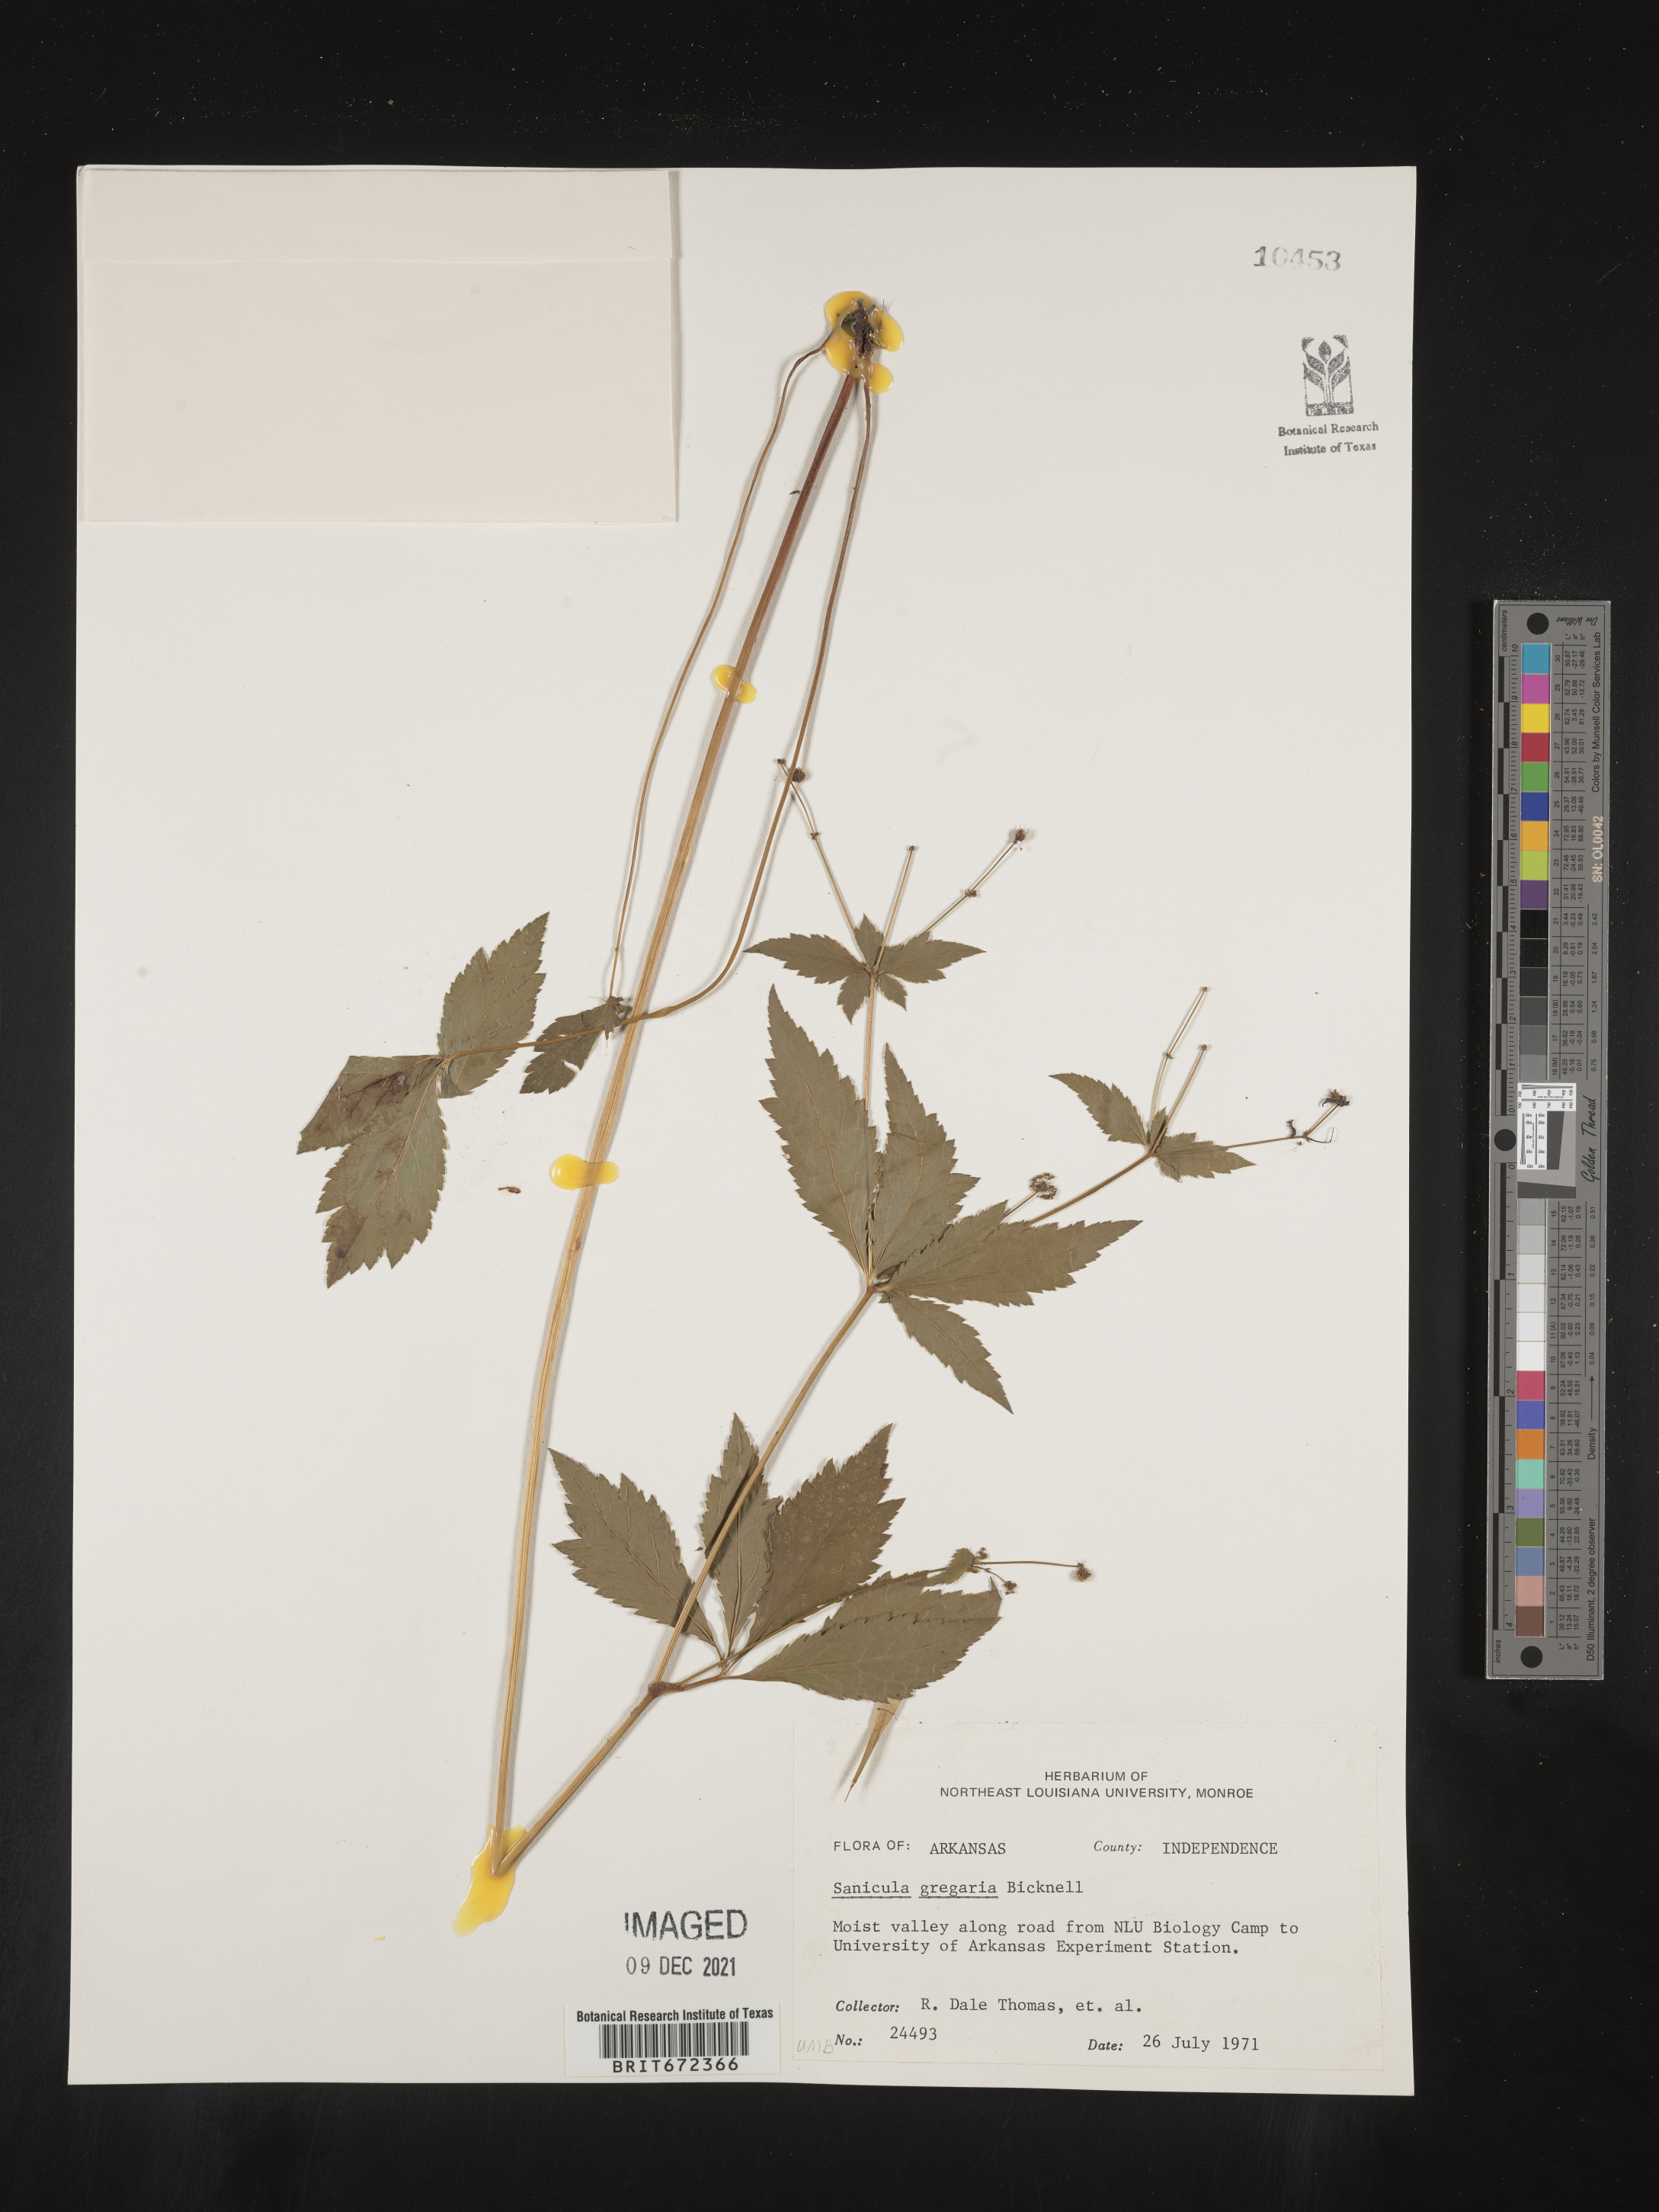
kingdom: Plantae
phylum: Tracheophyta
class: Magnoliopsida
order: Apiales
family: Apiaceae
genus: Sanicula
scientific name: Sanicula odorata
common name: Cluster sanicle
